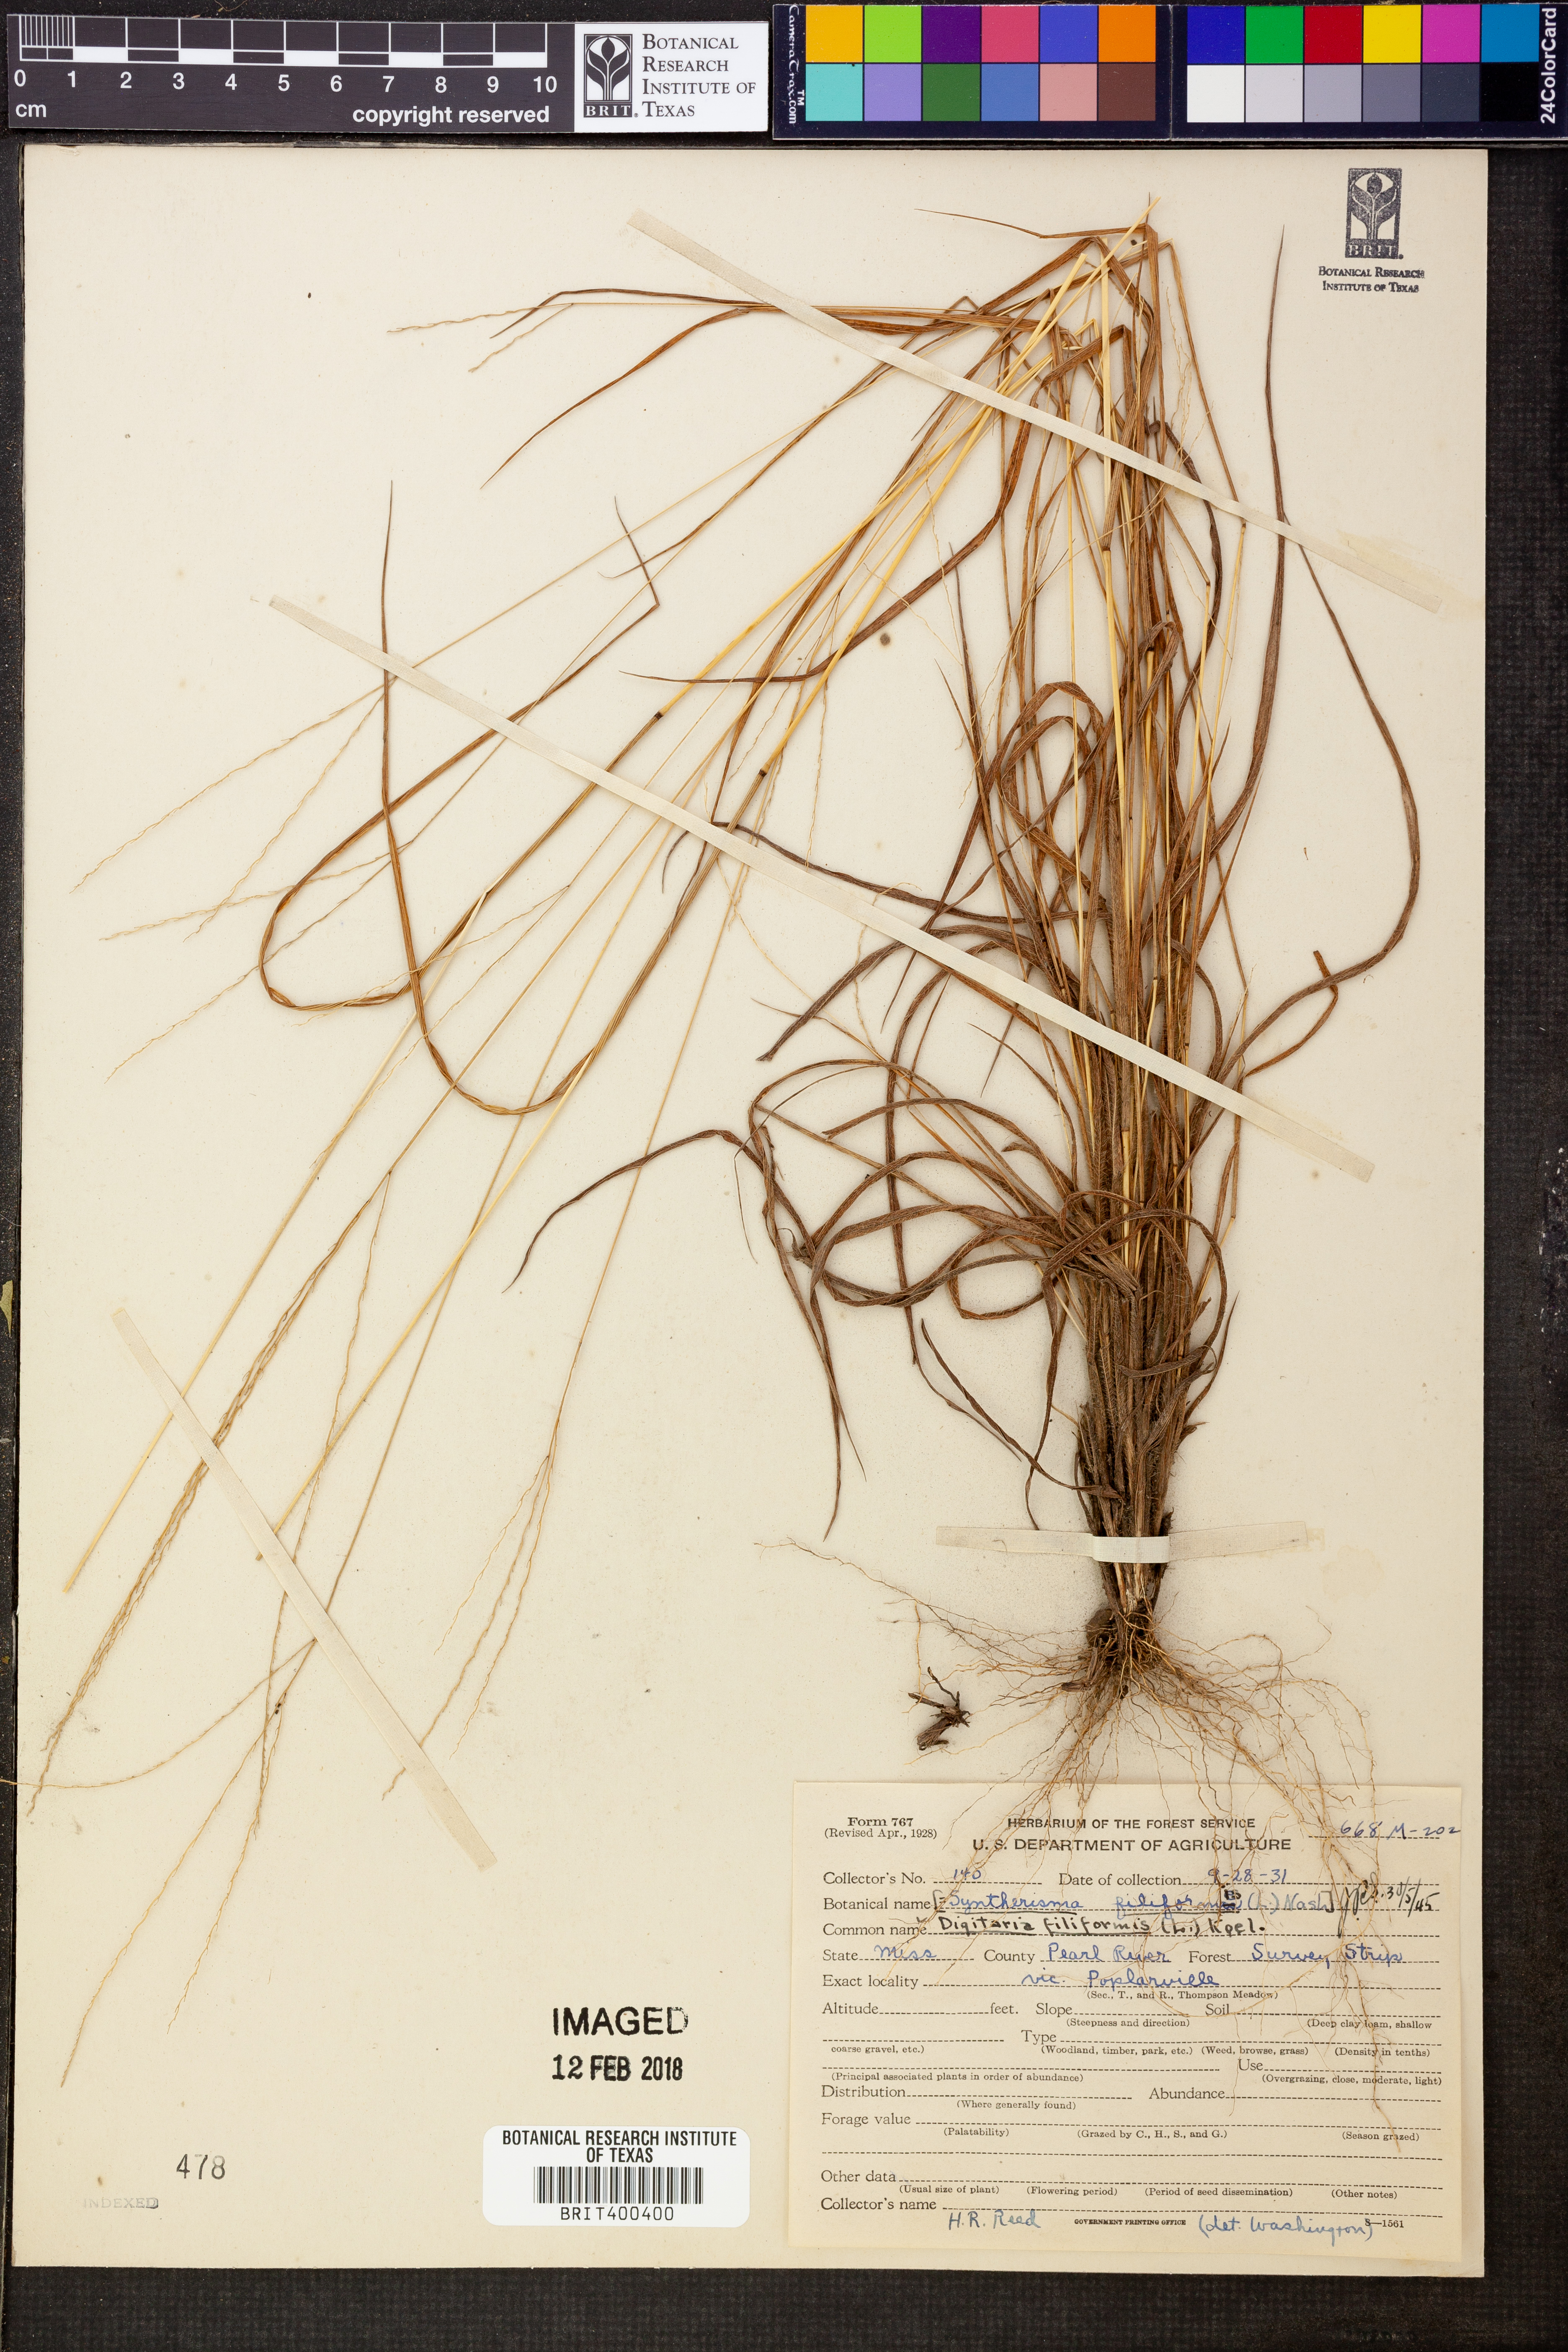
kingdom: Plantae
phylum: Tracheophyta
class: Liliopsida
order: Poales
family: Poaceae
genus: Digitaria
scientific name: Digitaria filiformis
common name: Slender crabgrass
